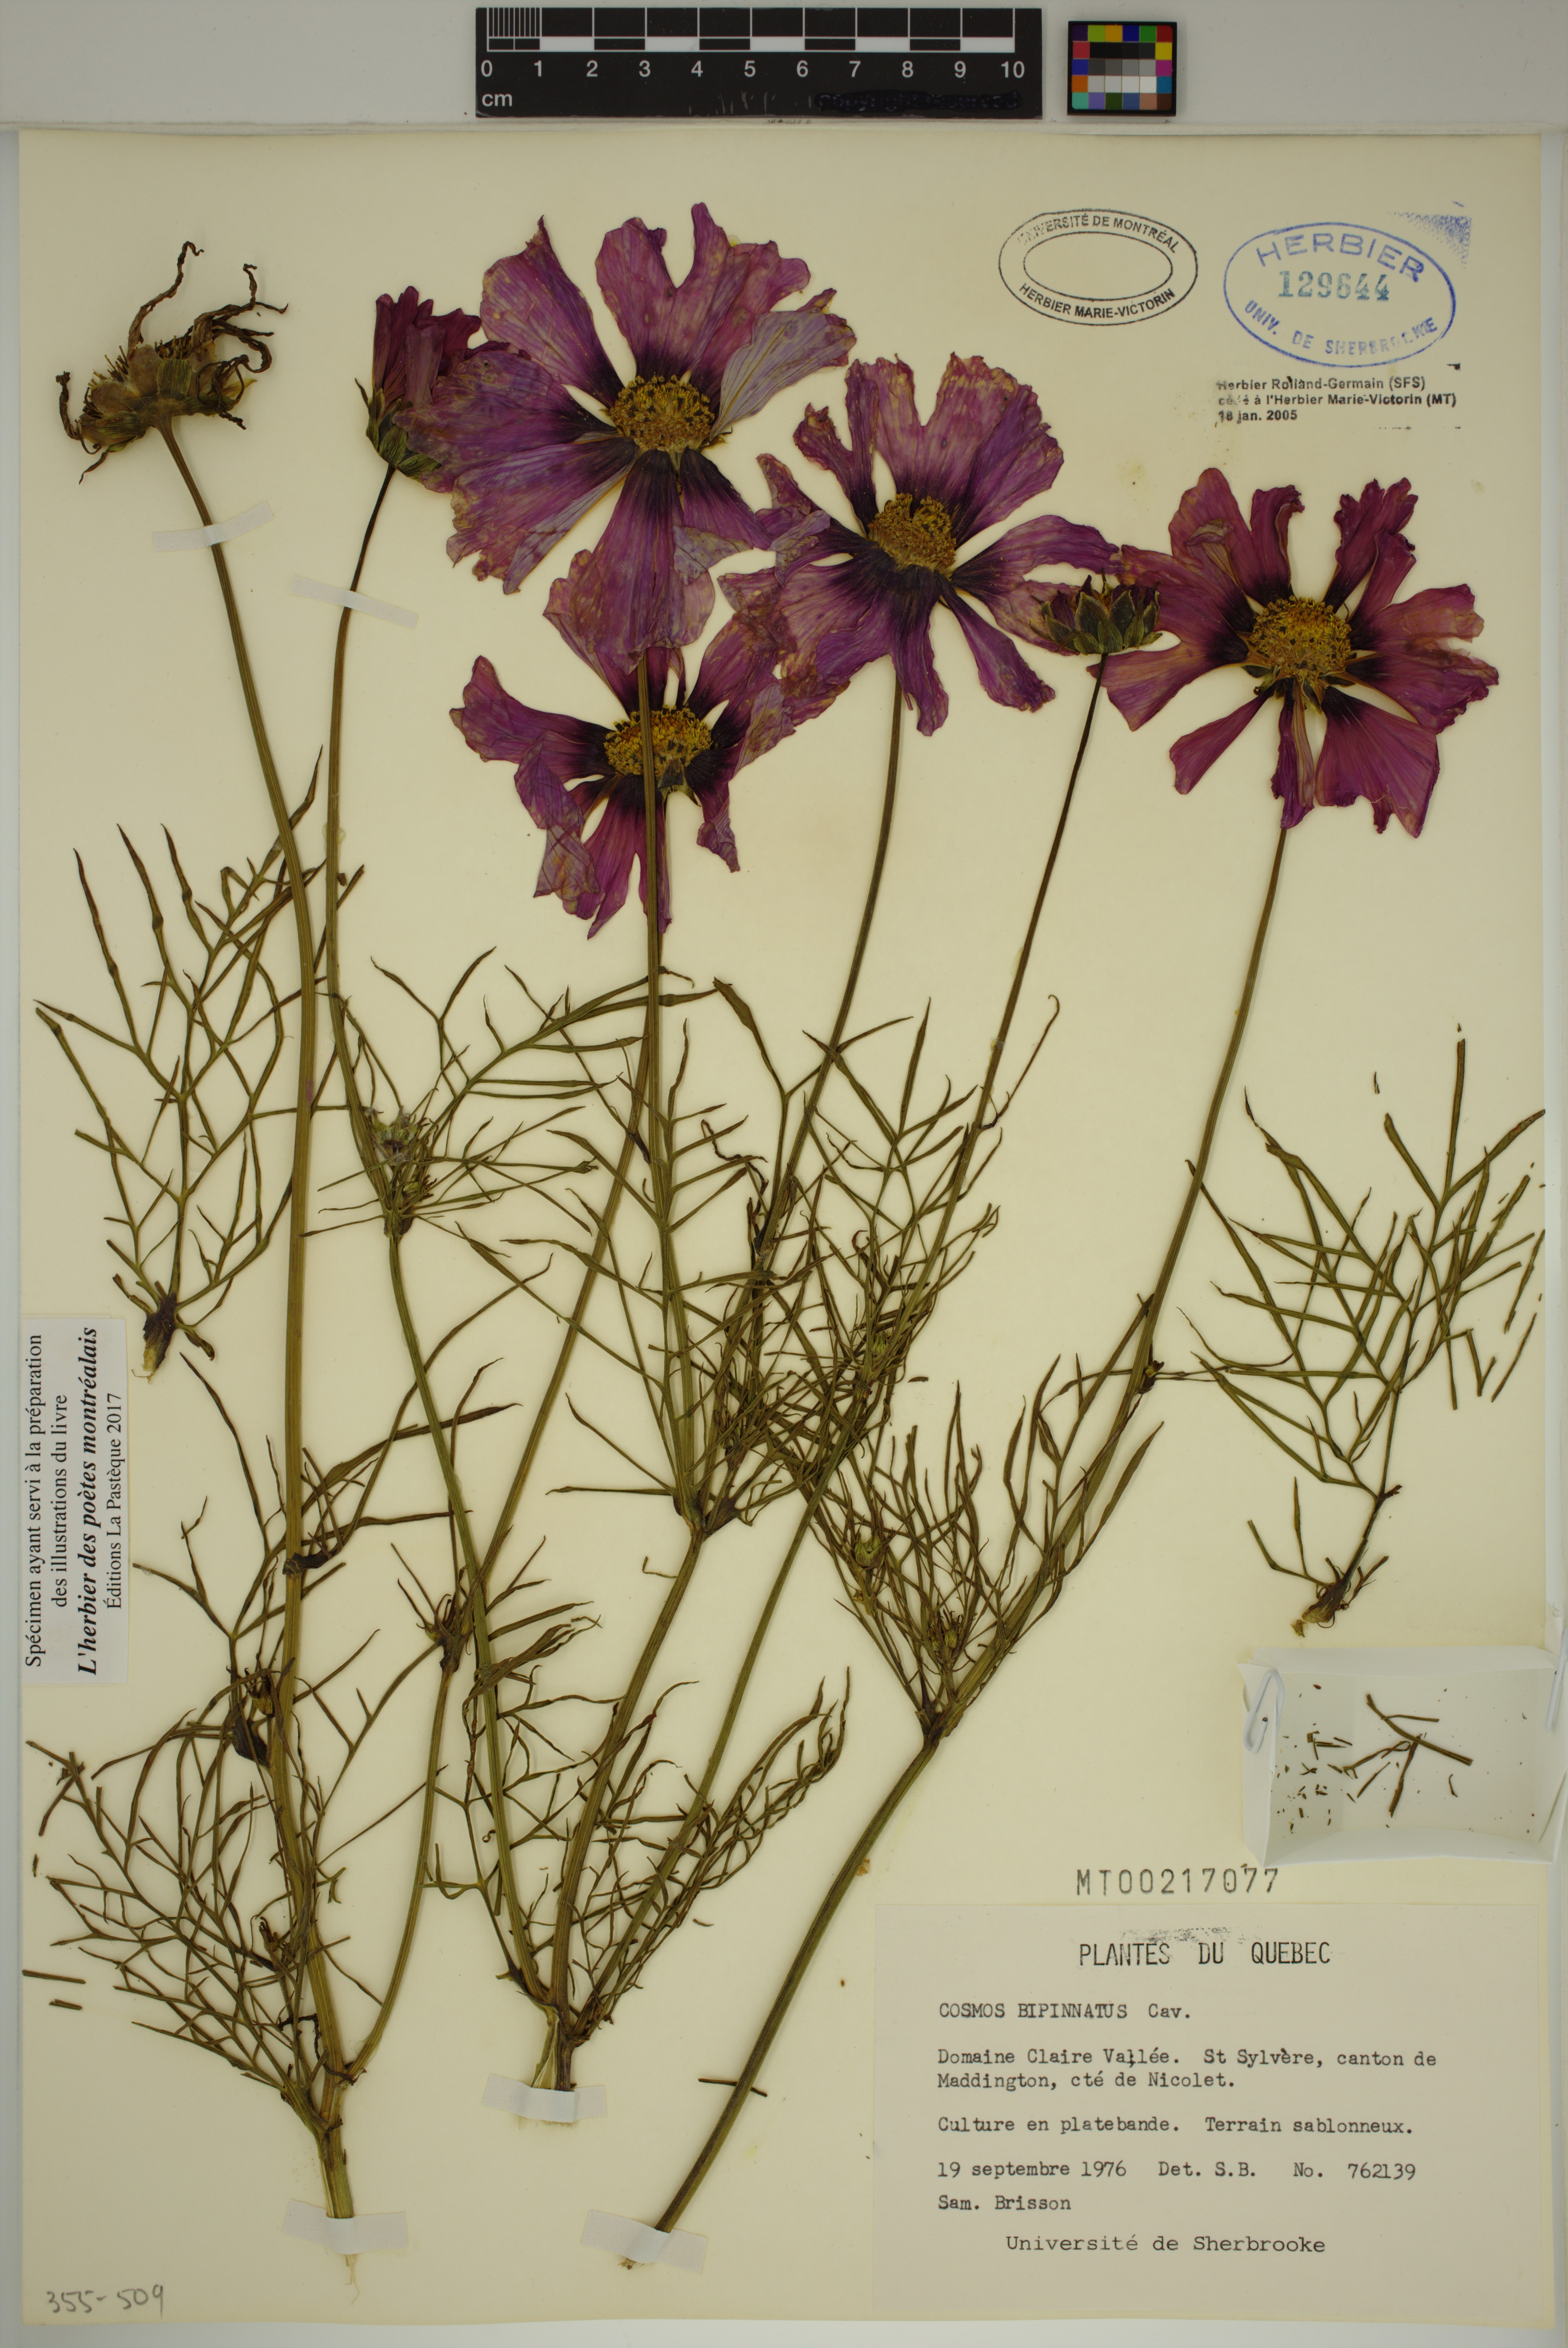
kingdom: Plantae
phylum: Tracheophyta
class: Magnoliopsida
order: Asterales
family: Asteraceae
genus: Cosmos
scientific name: Cosmos bipinnatus
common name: Garden cosmos
